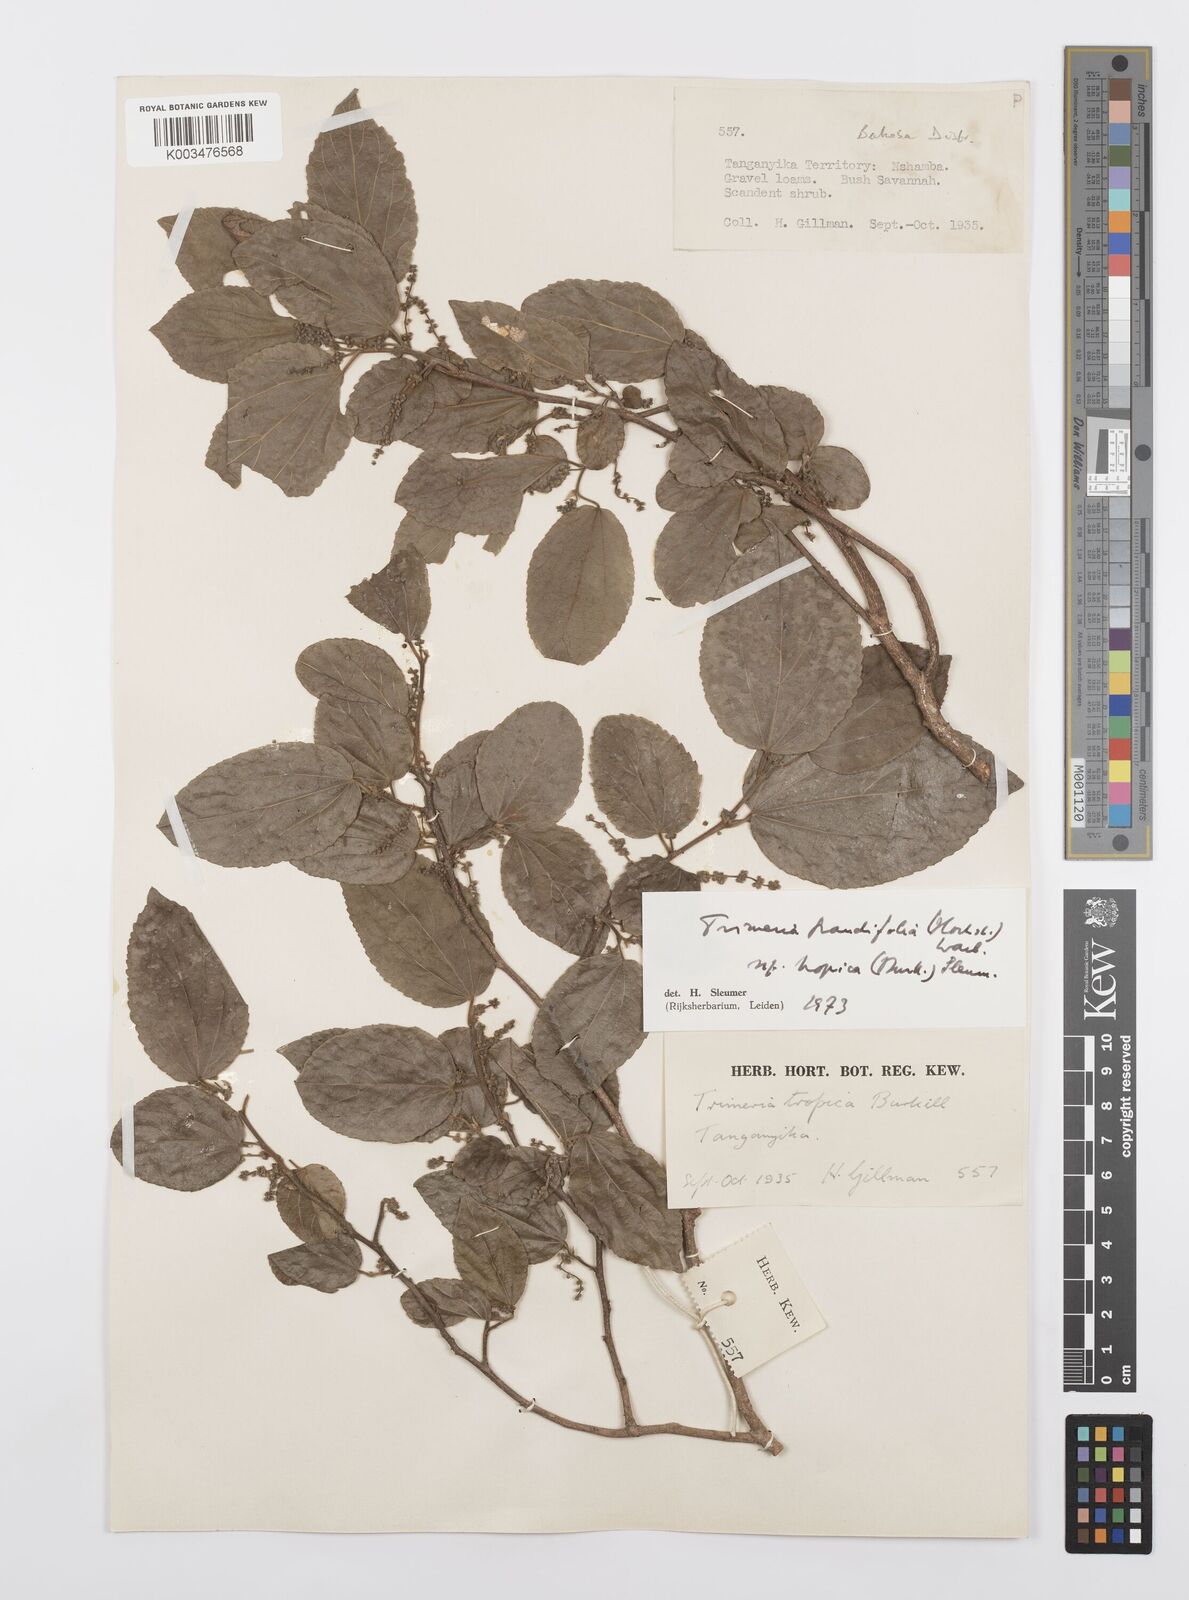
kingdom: Plantae
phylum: Tracheophyta
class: Magnoliopsida
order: Malpighiales
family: Salicaceae
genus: Trimeria
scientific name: Trimeria grandifolia
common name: Wild mulberry
